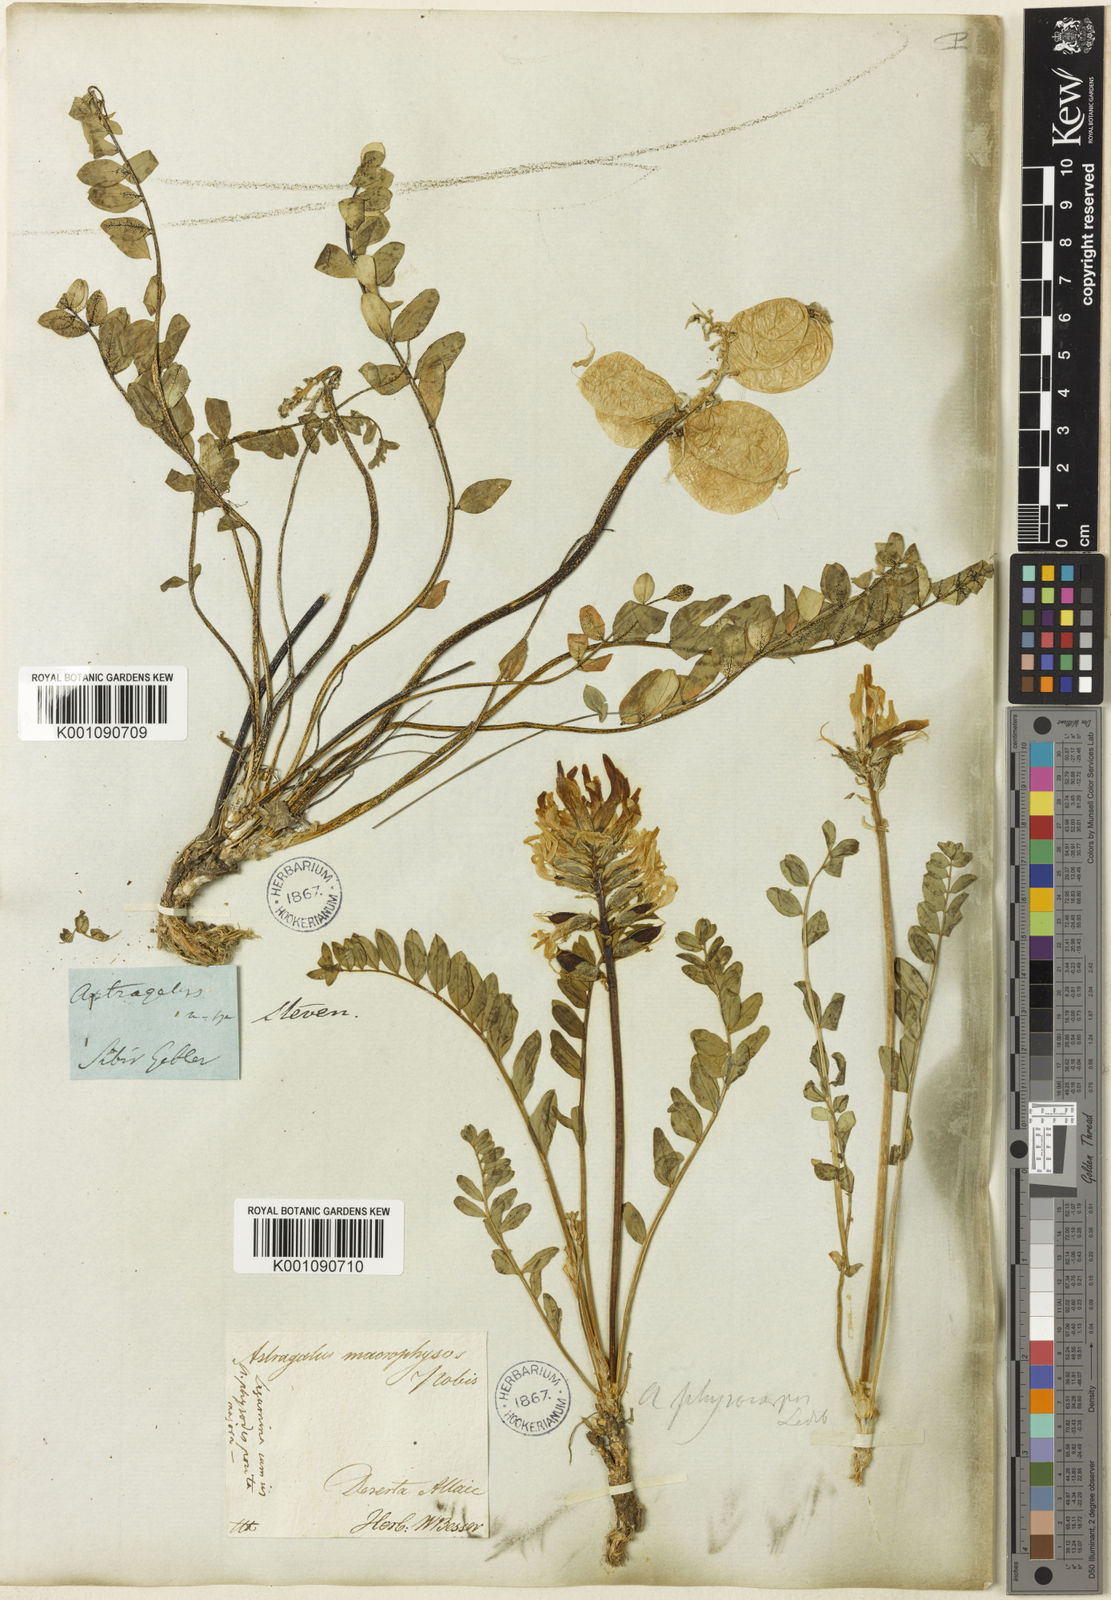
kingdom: Plantae
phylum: Tracheophyta
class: Magnoliopsida
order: Fabales
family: Fabaceae
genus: Astragalus
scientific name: Astragalus
